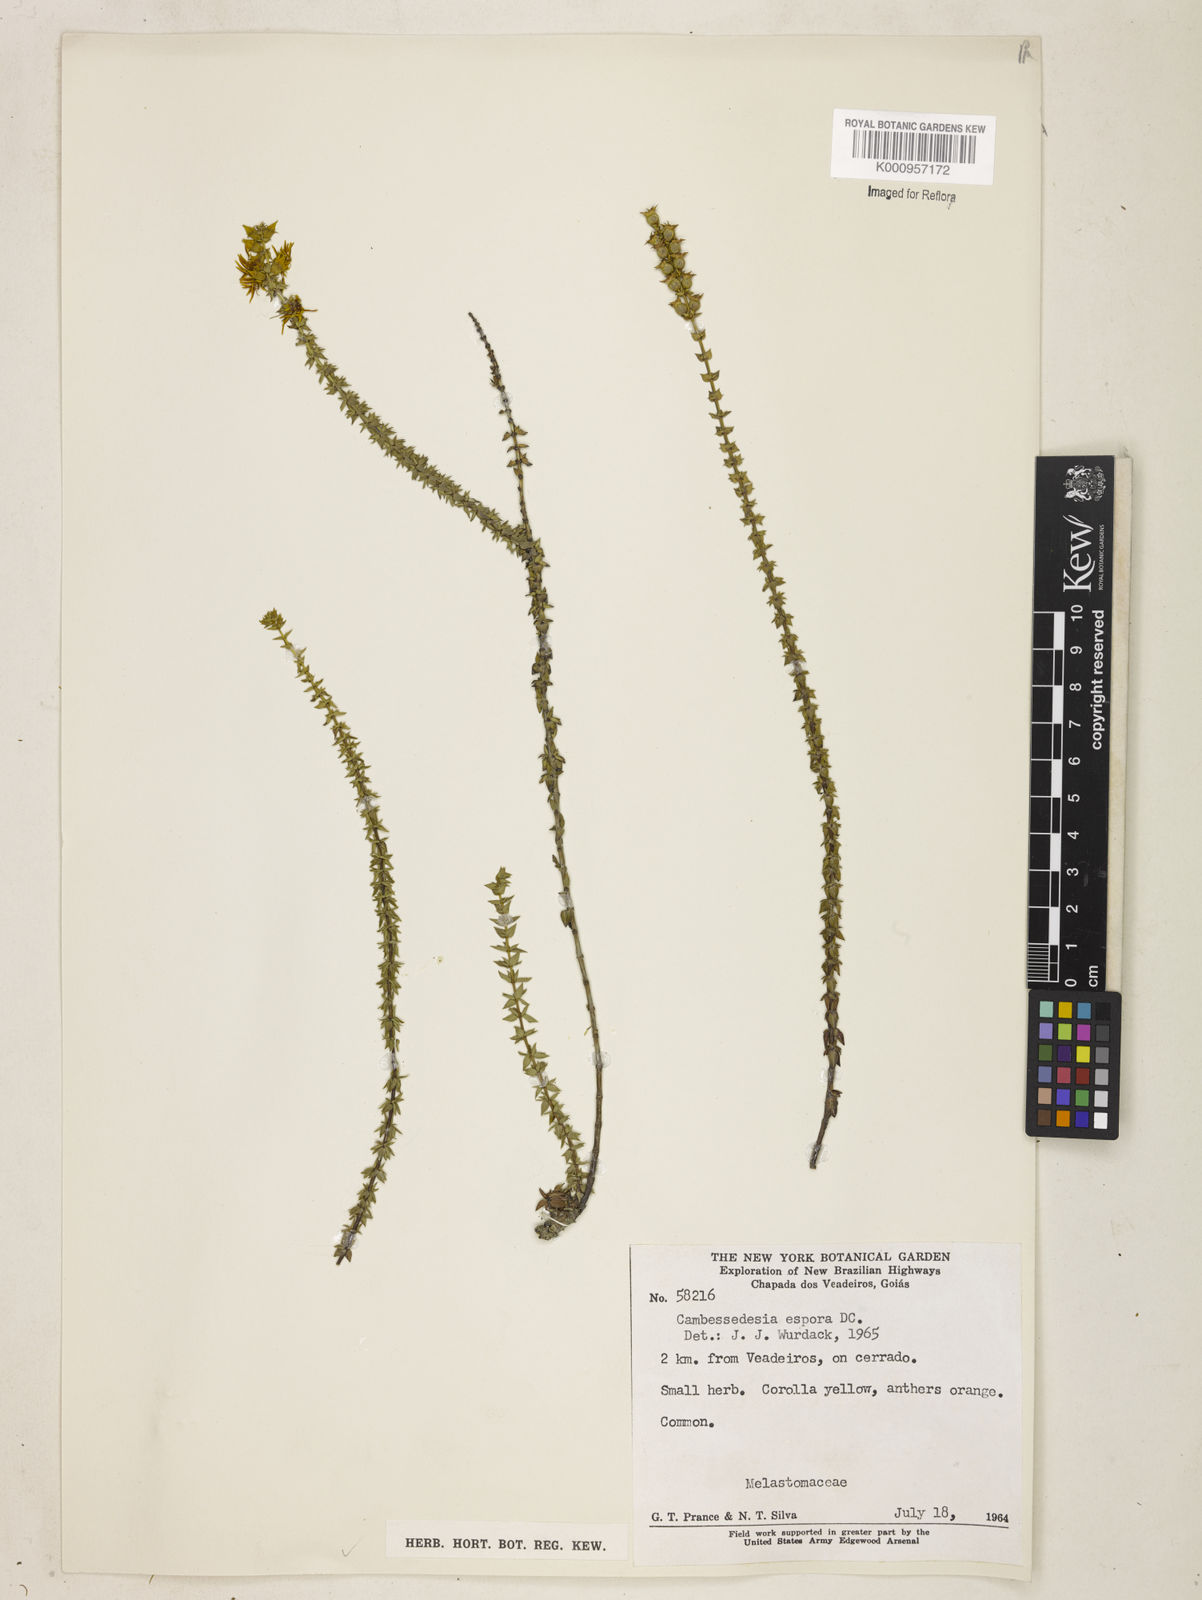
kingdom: Plantae
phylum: Tracheophyta
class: Magnoliopsida
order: Myrtales
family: Melastomataceae
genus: Cambessedesia
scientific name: Cambessedesia espora
